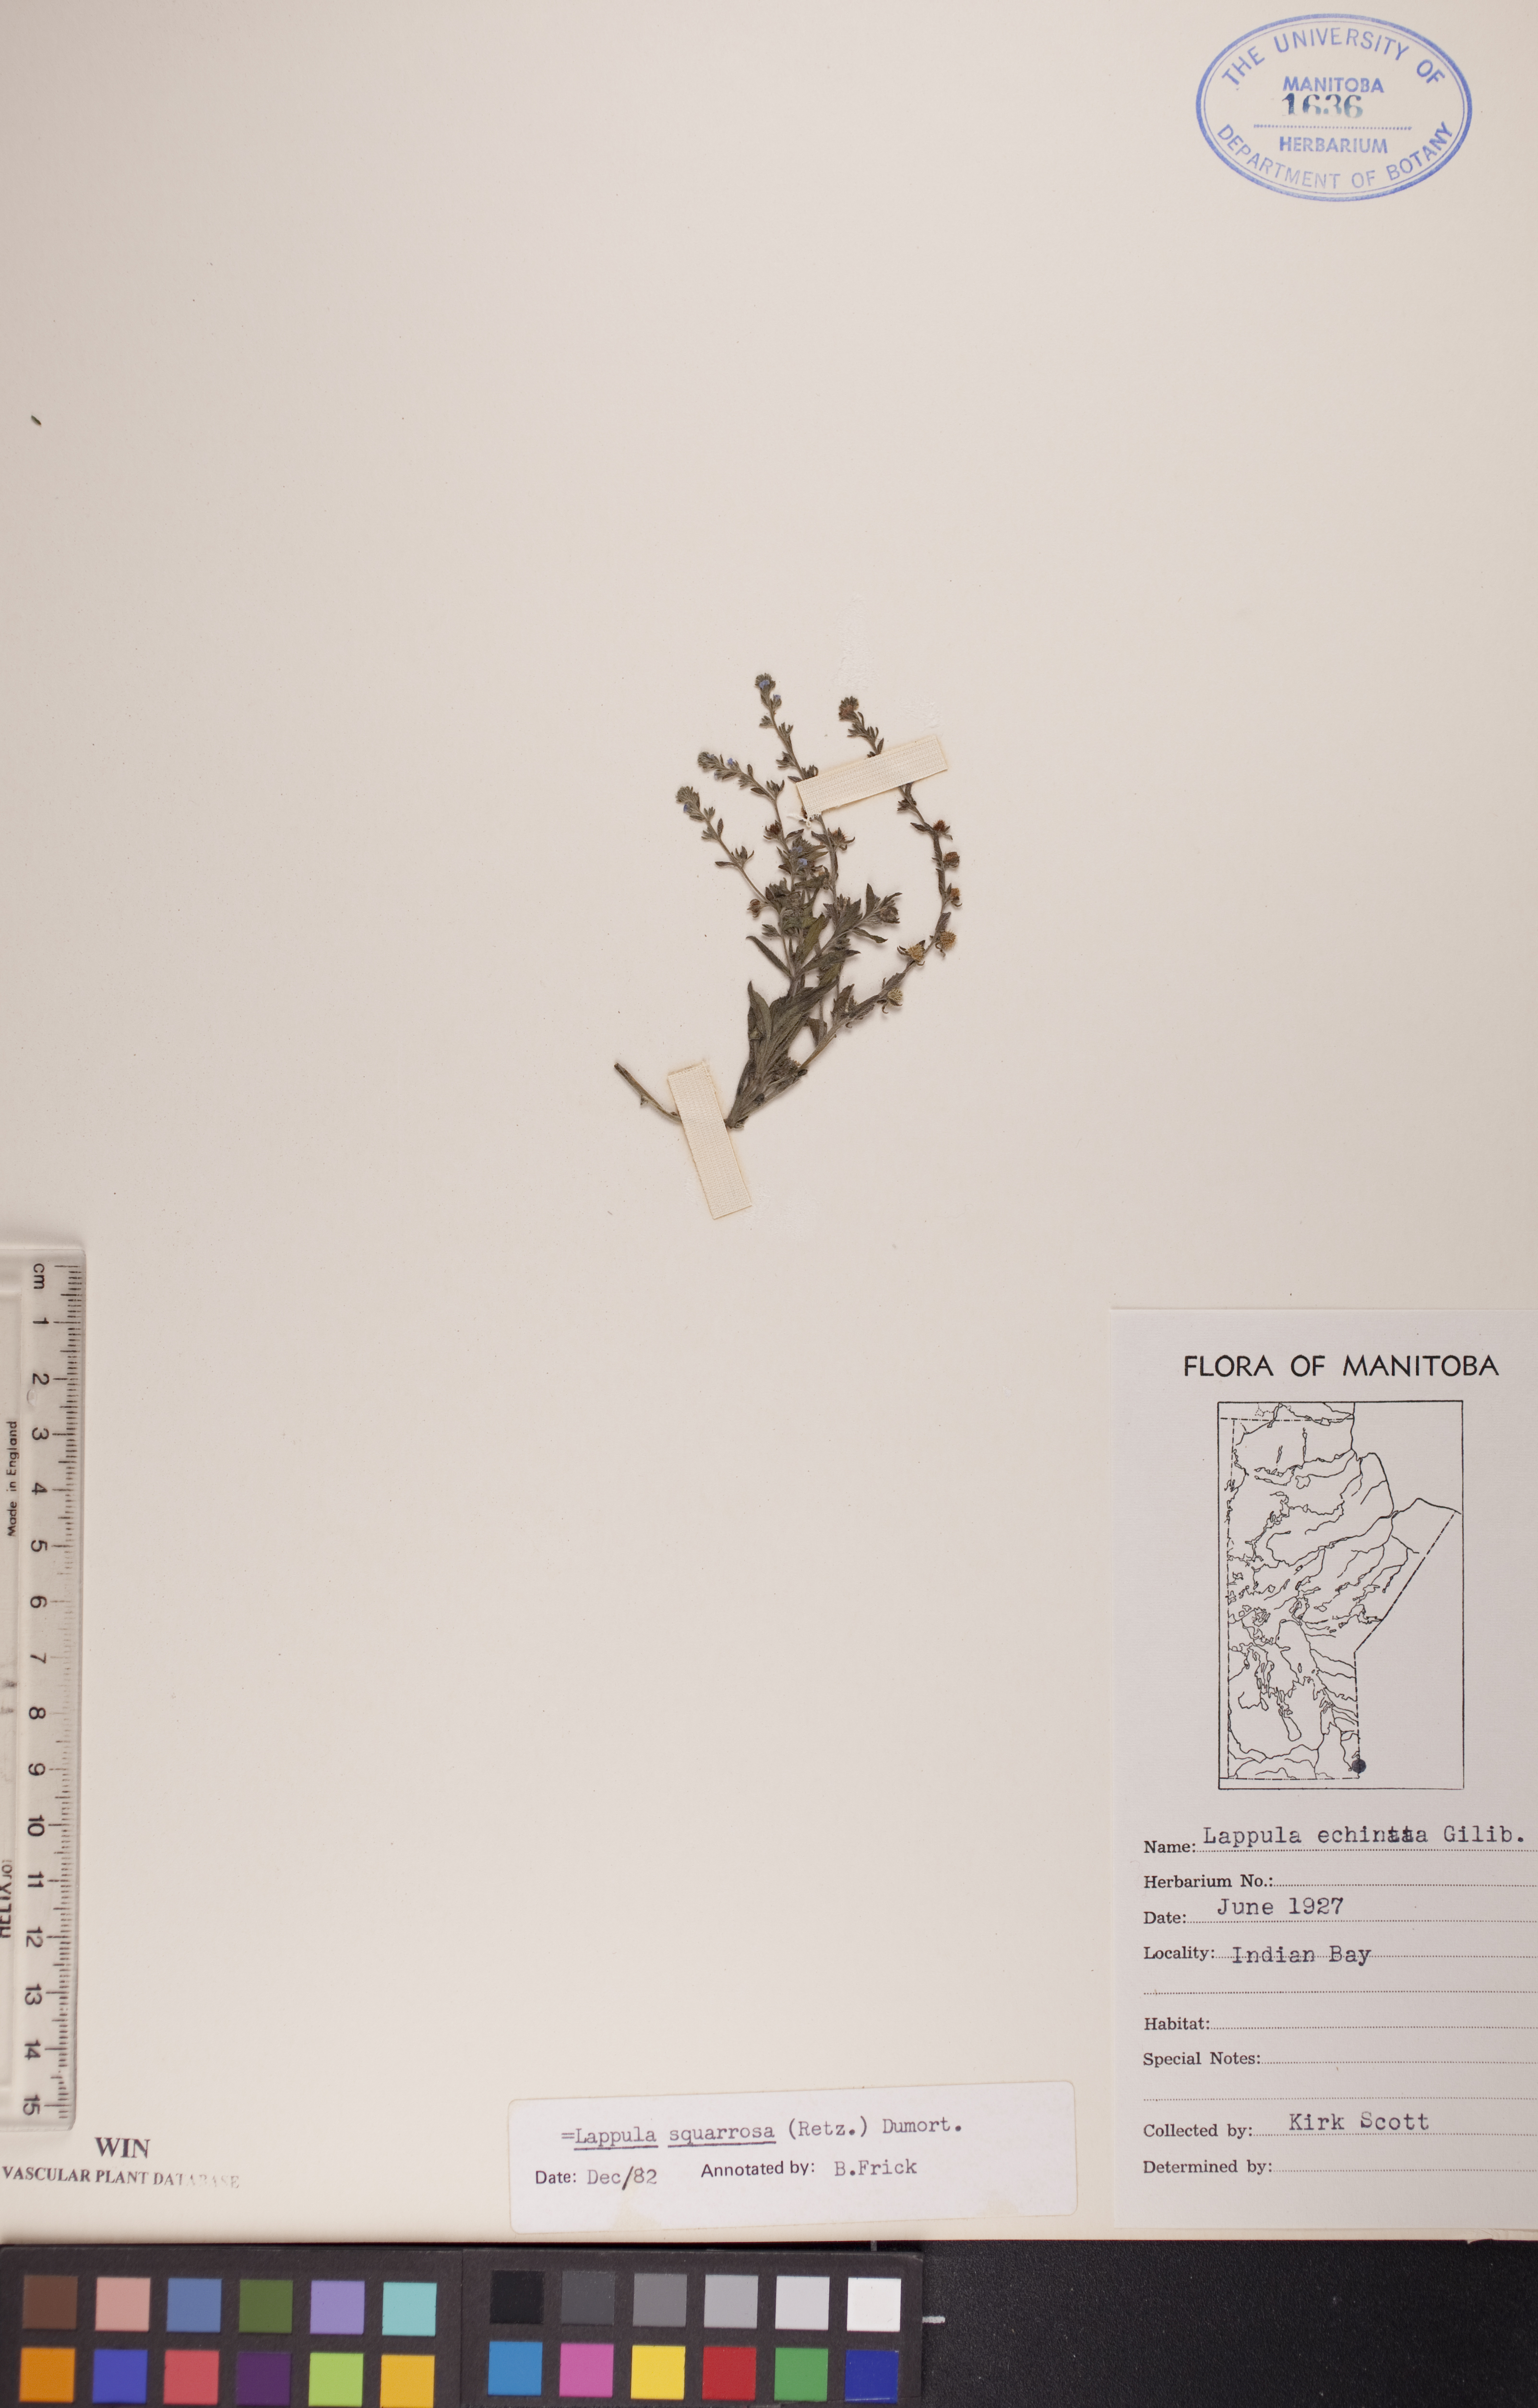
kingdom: Plantae
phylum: Tracheophyta
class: Magnoliopsida
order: Boraginales
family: Boraginaceae
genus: Lappula
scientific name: Lappula squarrosa
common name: European stickseed
